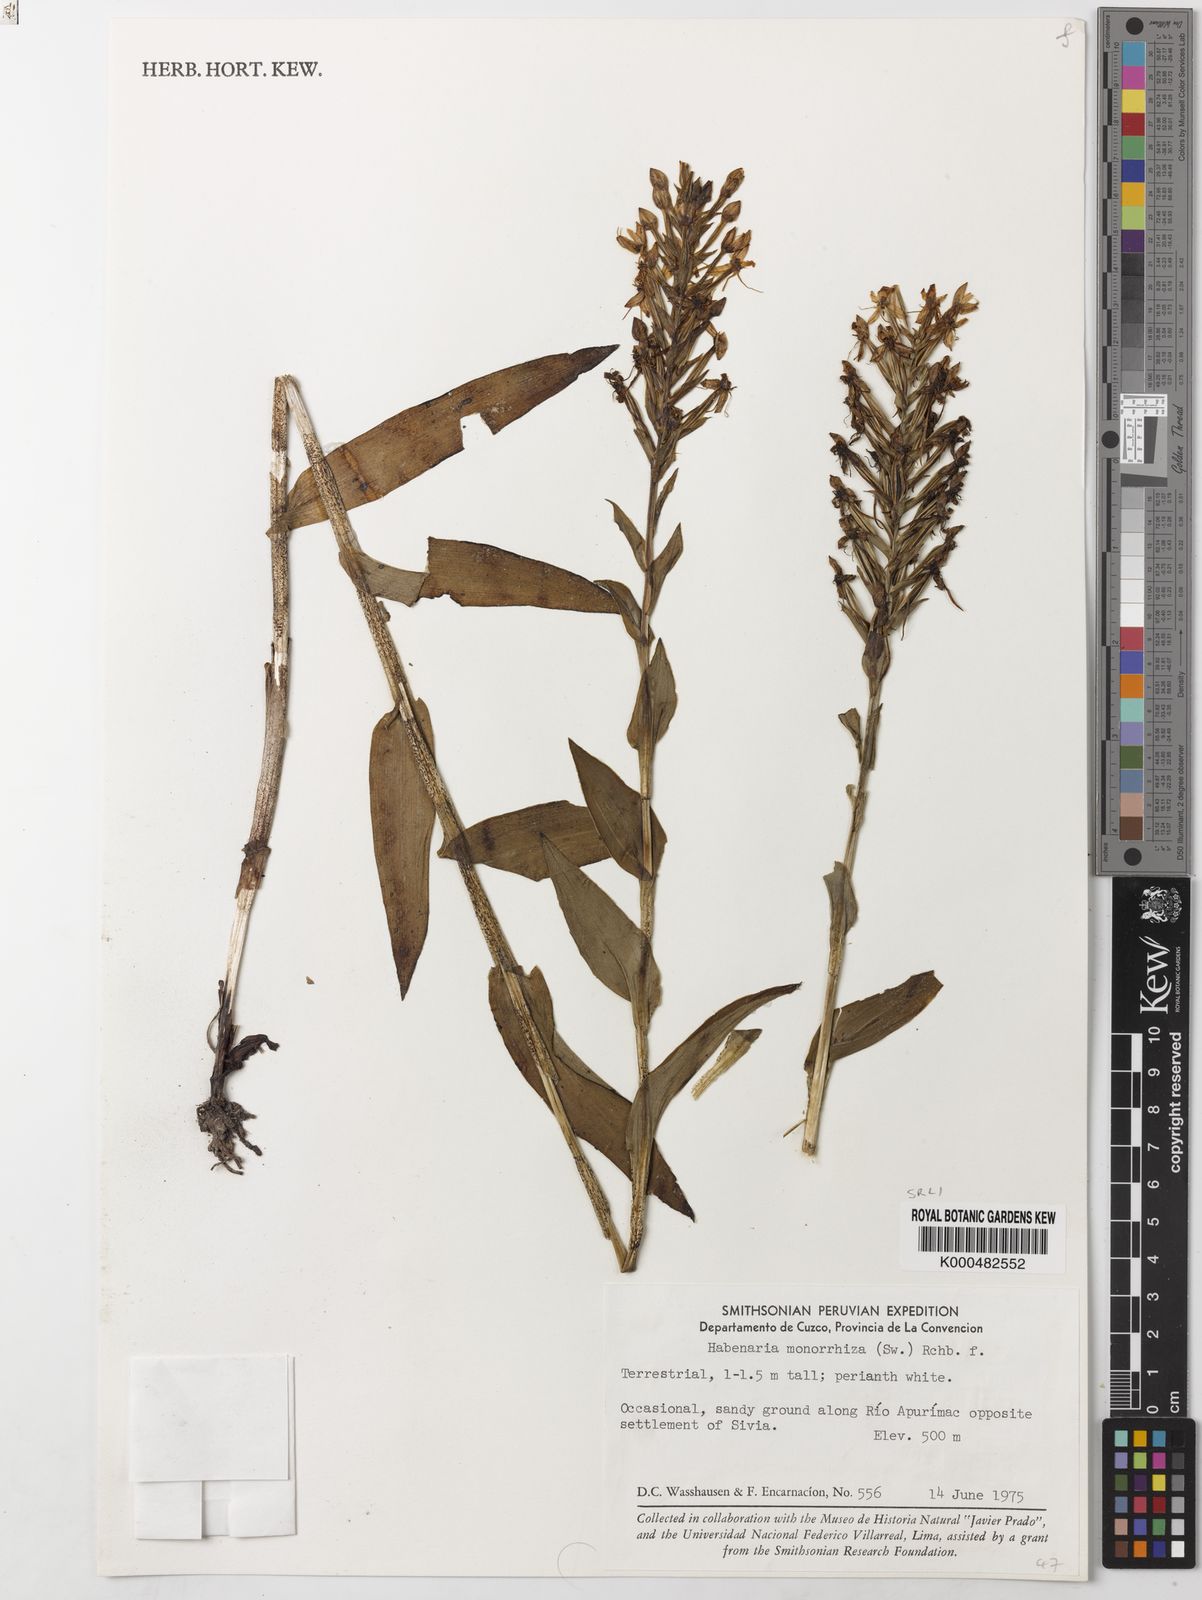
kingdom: Plantae
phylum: Tracheophyta
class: Liliopsida
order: Asparagales
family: Orchidaceae
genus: Habenaria
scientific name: Habenaria monorrhiza
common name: Tropical bog orchid
